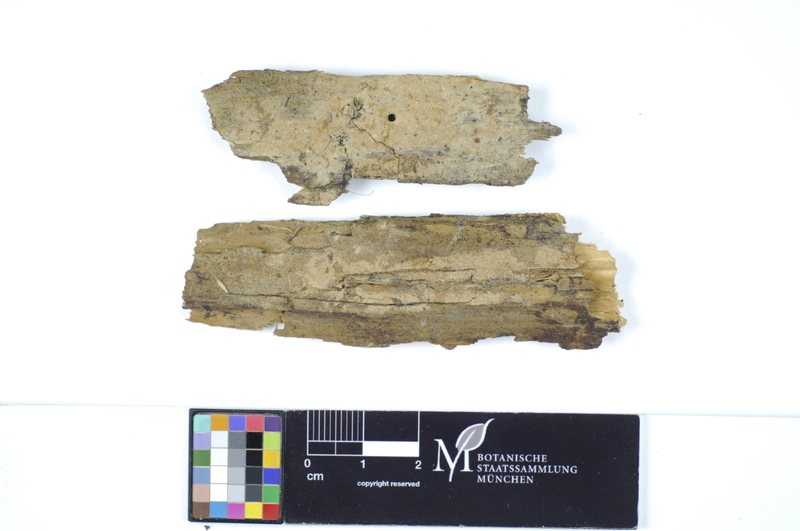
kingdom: Fungi
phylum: Basidiomycota
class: Agaricomycetes
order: Hymenochaetales
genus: Kurtia
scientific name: Kurtia argillacea
